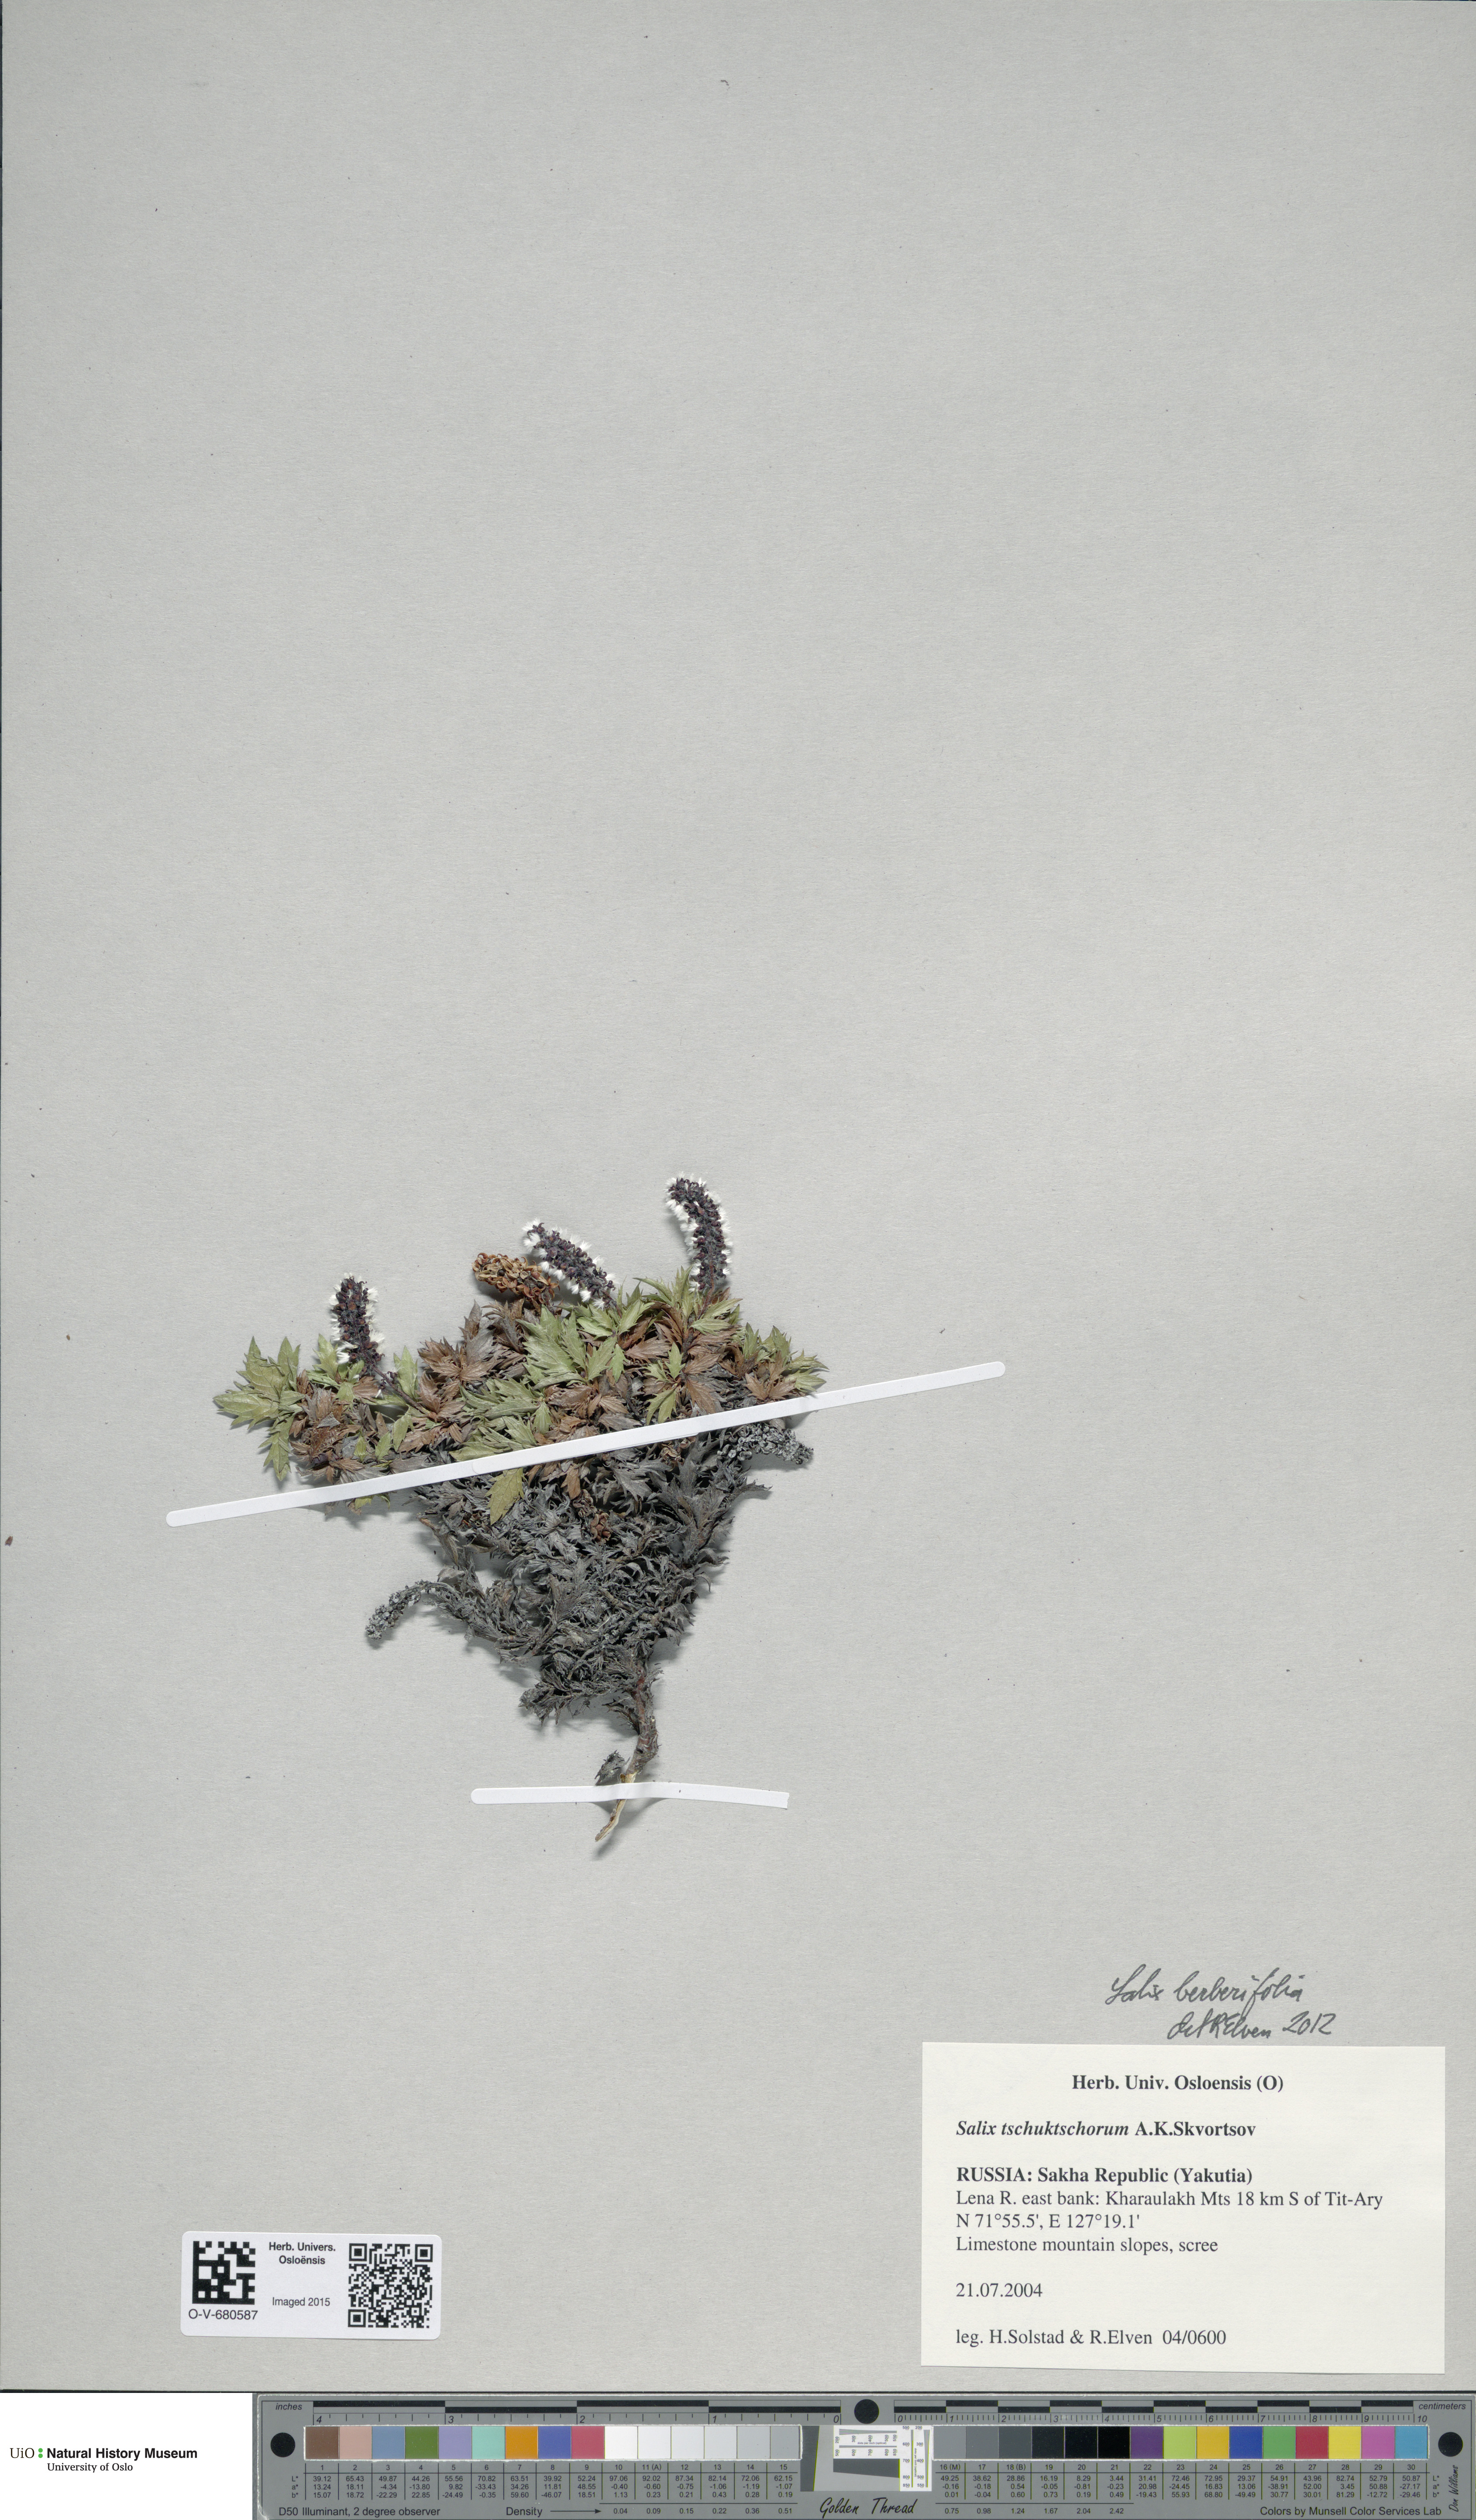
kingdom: Plantae
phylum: Tracheophyta
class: Magnoliopsida
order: Malpighiales
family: Salicaceae
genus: Salix
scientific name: Salix berberifolia
